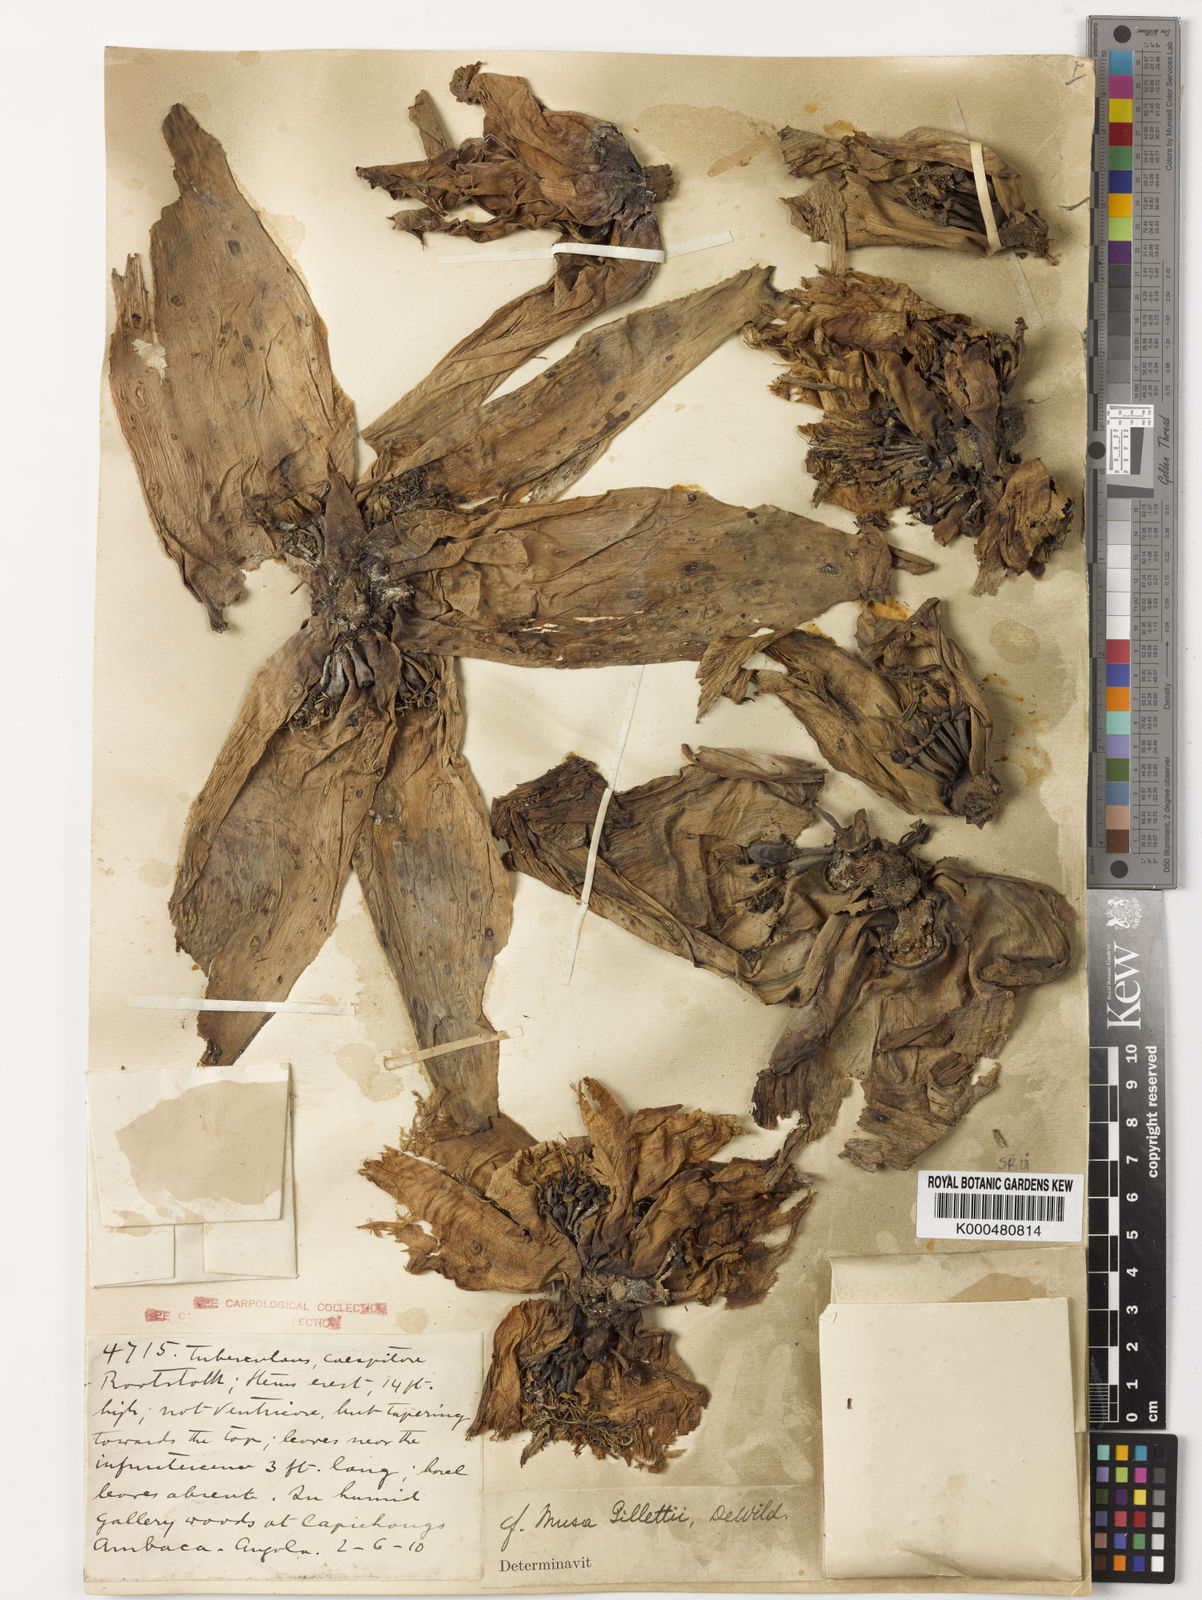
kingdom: Plantae
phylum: Tracheophyta
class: Liliopsida
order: Zingiberales
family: Musaceae
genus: Ensete
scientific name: Ensete livingstonianum
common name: Livingston's banana
